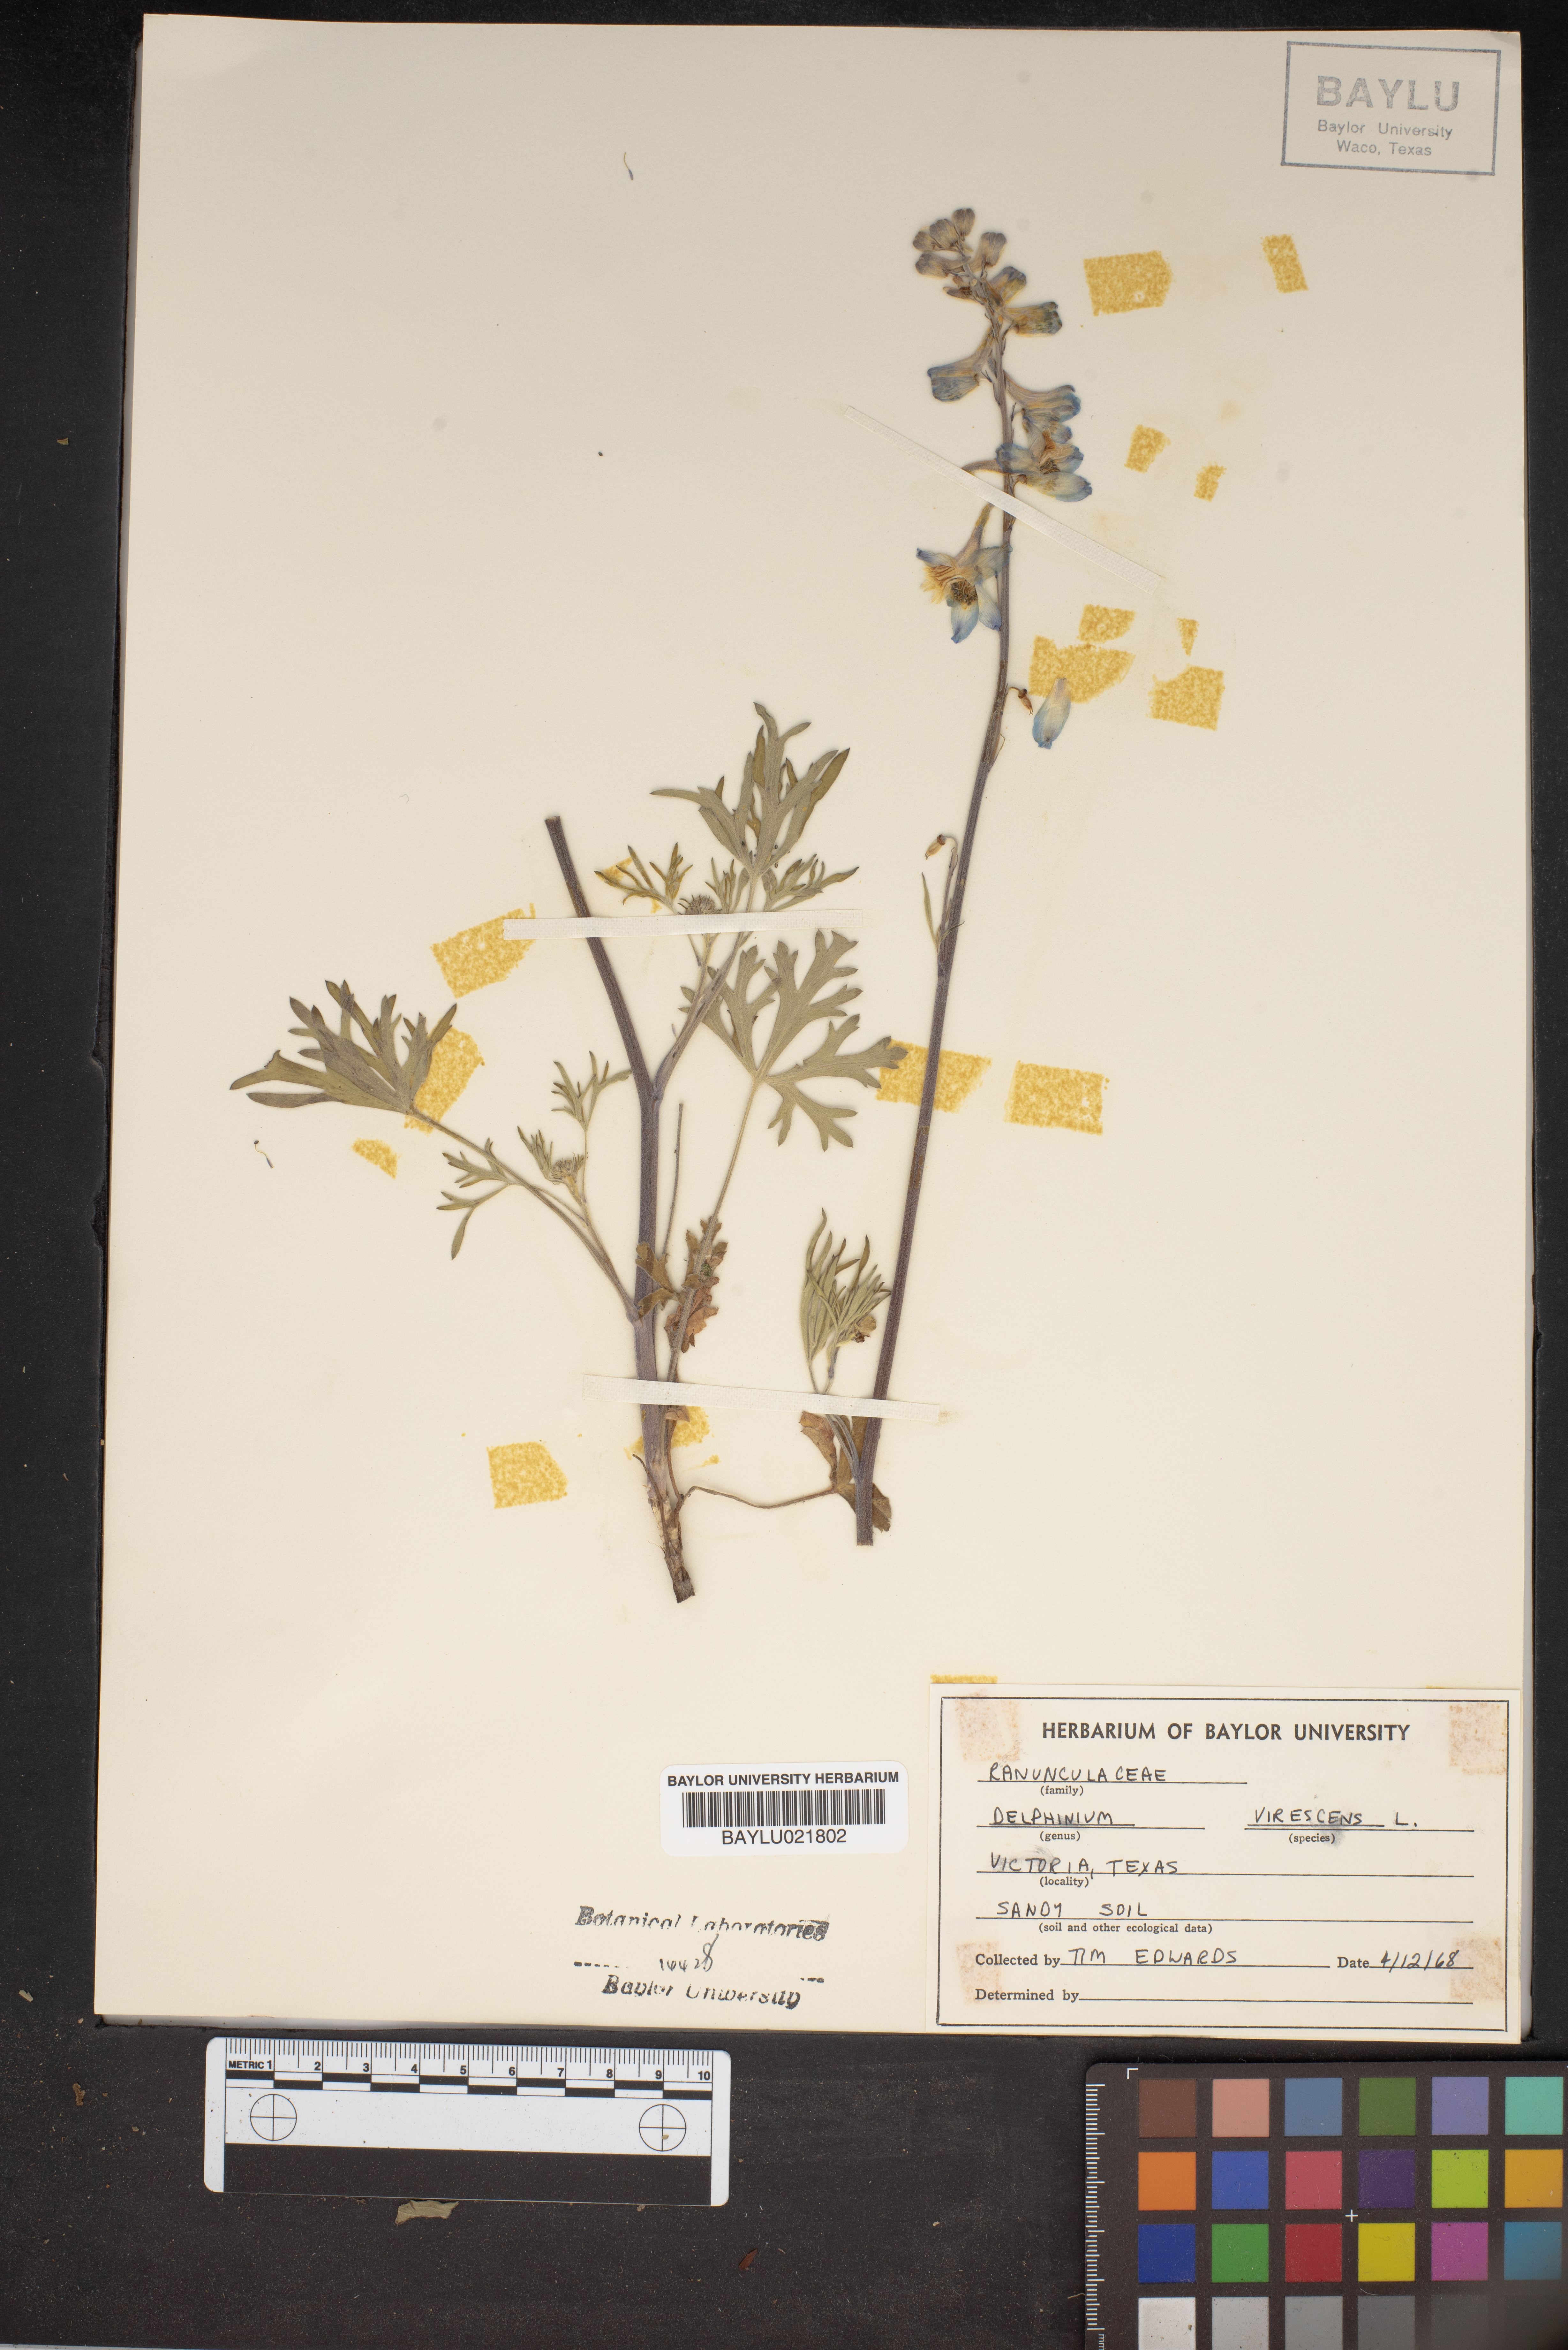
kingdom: Plantae
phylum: Tracheophyta
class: Magnoliopsida
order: Ranunculales
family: Ranunculaceae
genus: Delphinium
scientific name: Delphinium carolinianum
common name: Carolina larkspur
